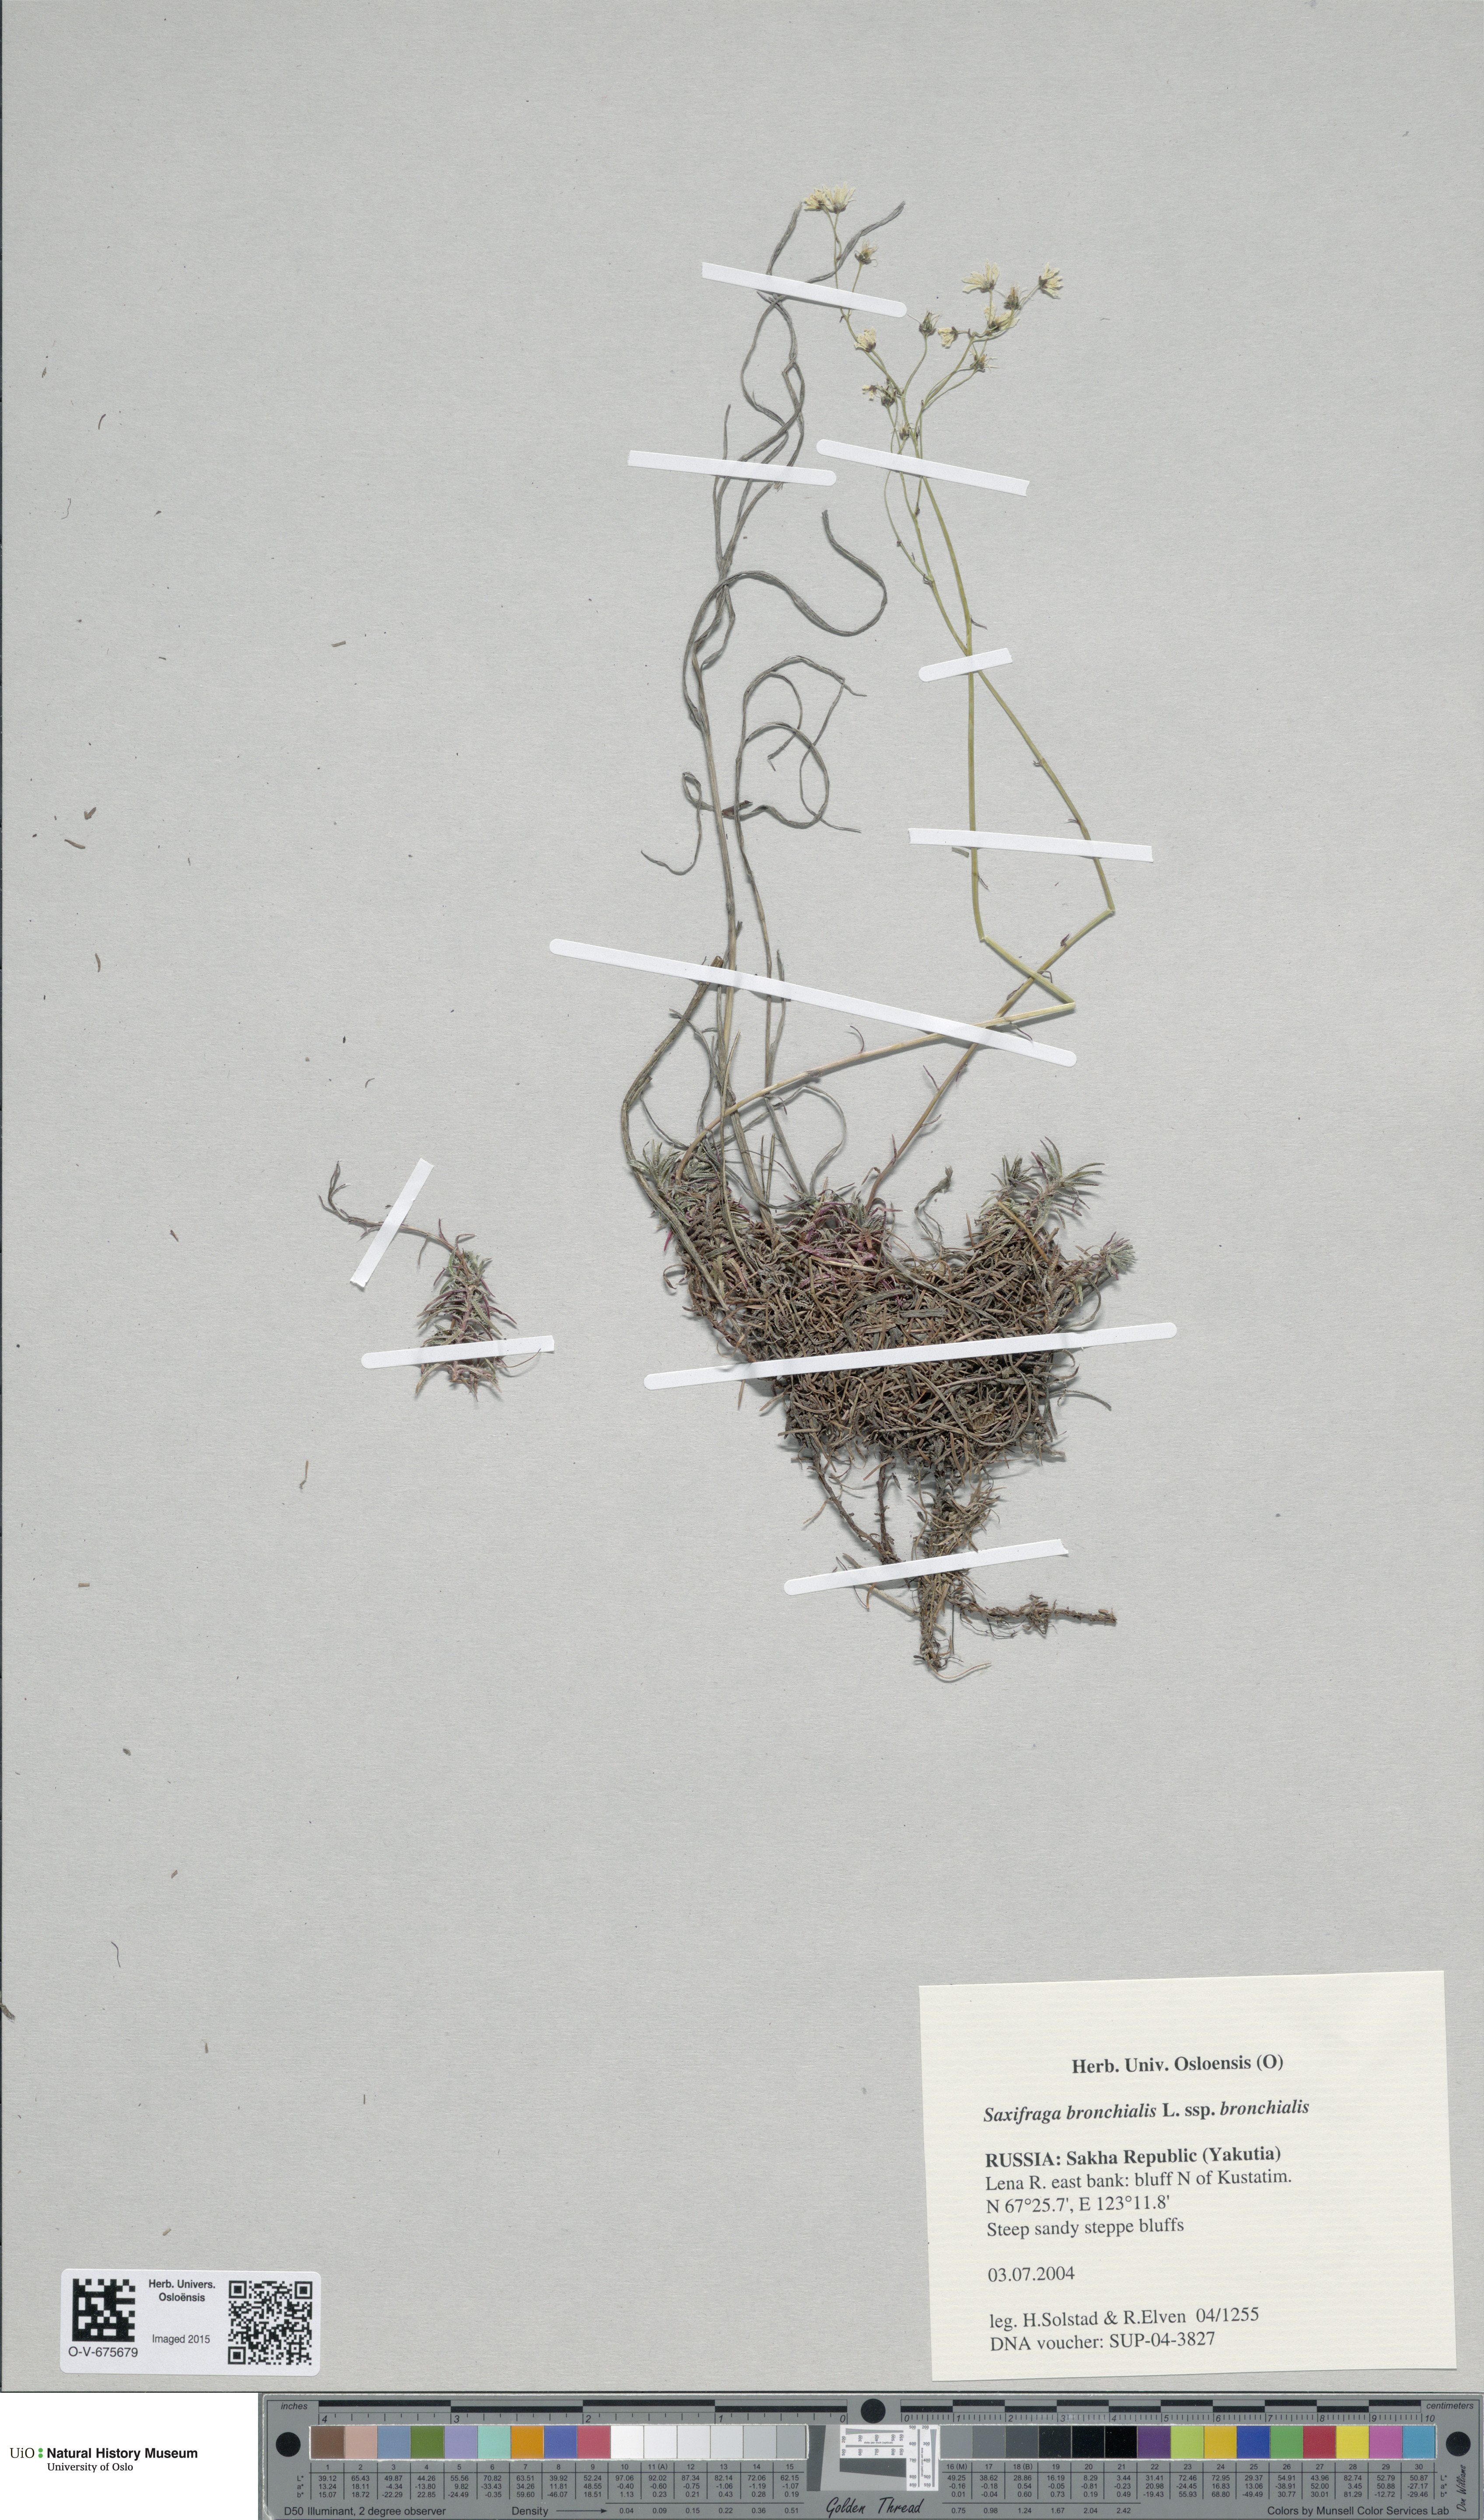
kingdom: Plantae
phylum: Tracheophyta
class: Magnoliopsida
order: Saxifragales
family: Saxifragaceae
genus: Saxifraga
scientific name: Saxifraga bronchialis
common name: Matted saxifrage
